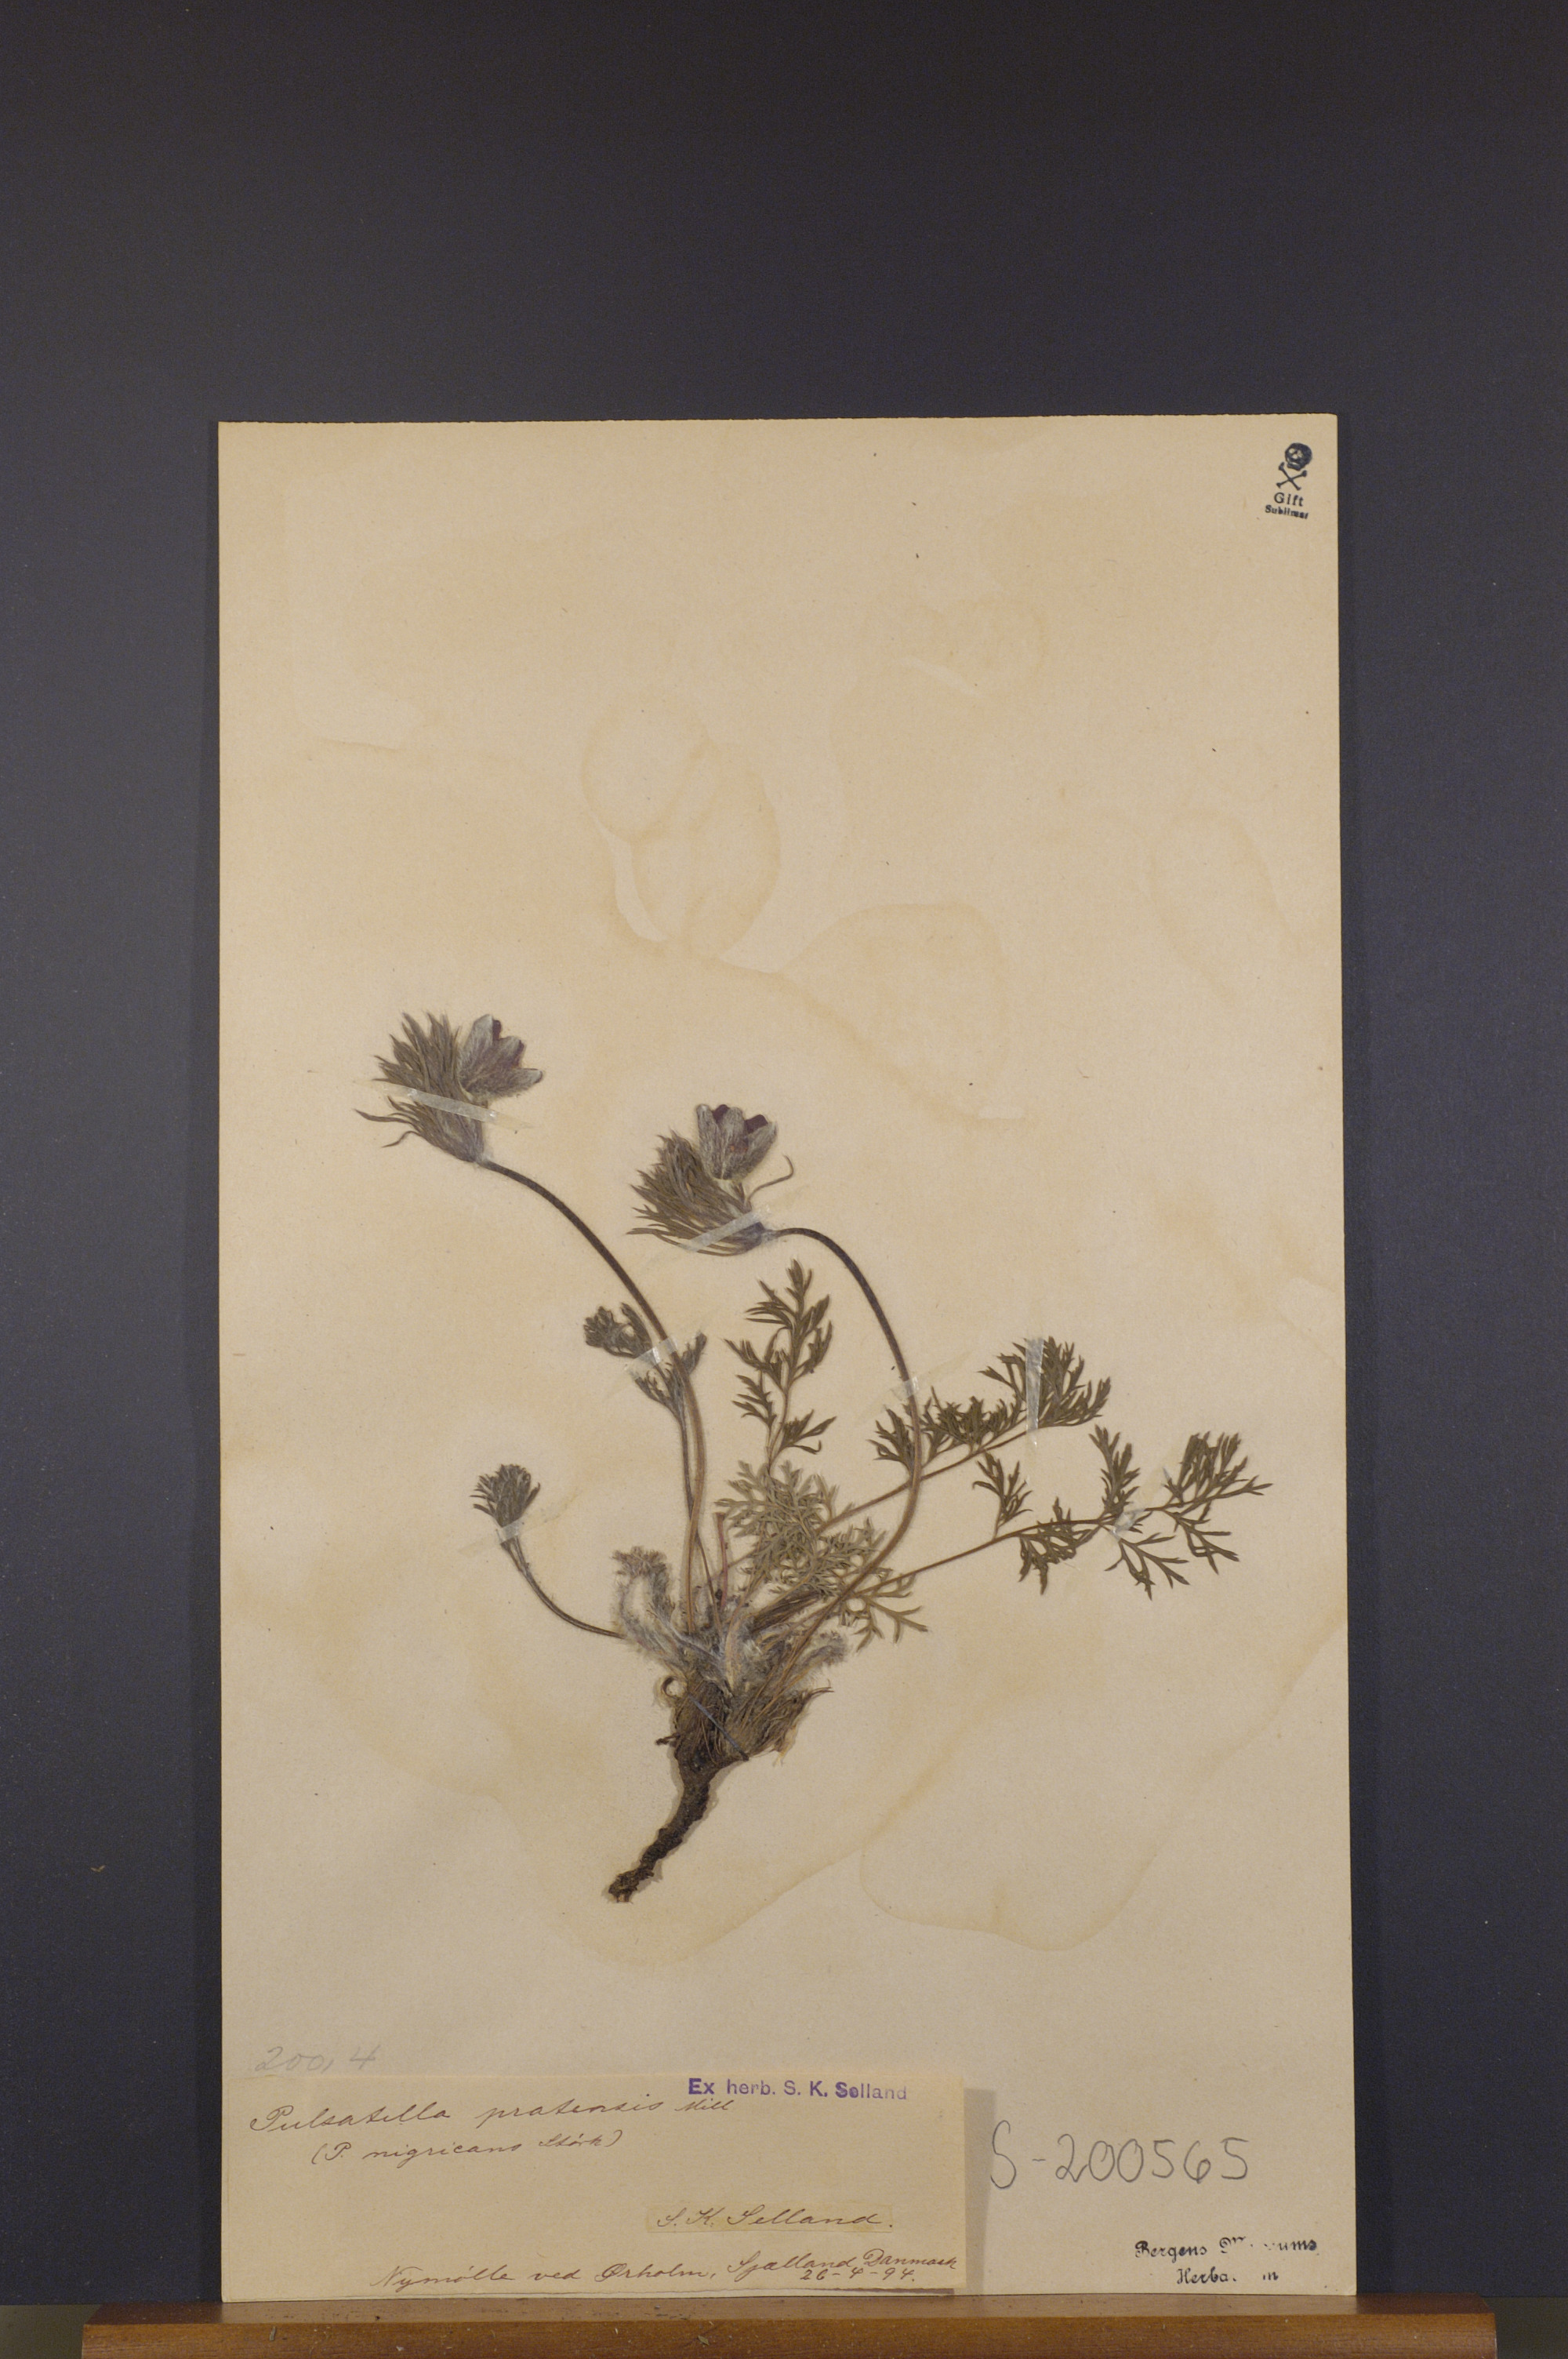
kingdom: Plantae
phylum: Tracheophyta
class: Magnoliopsida
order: Ranunculales
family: Ranunculaceae
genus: Pulsatilla
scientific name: Pulsatilla pratensis
